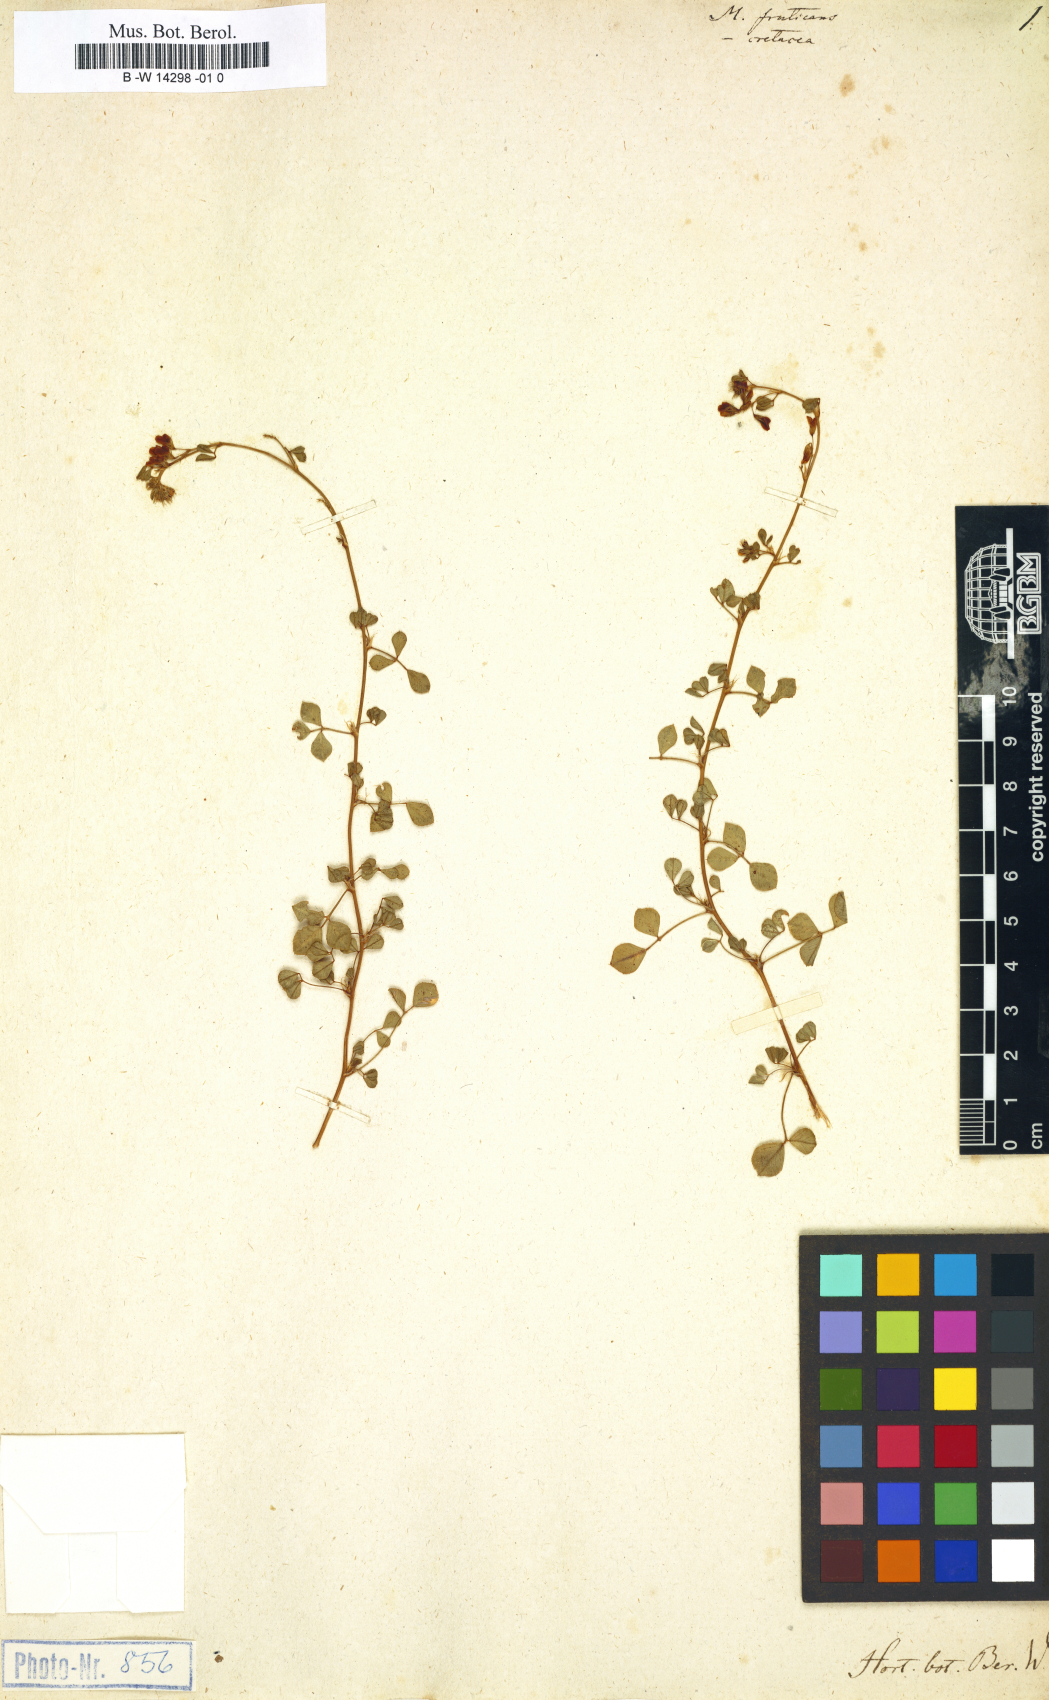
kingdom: Plantae
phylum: Tracheophyta
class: Magnoliopsida
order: Fabales
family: Fabaceae
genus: Medicago
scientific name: Medicago cretacea
